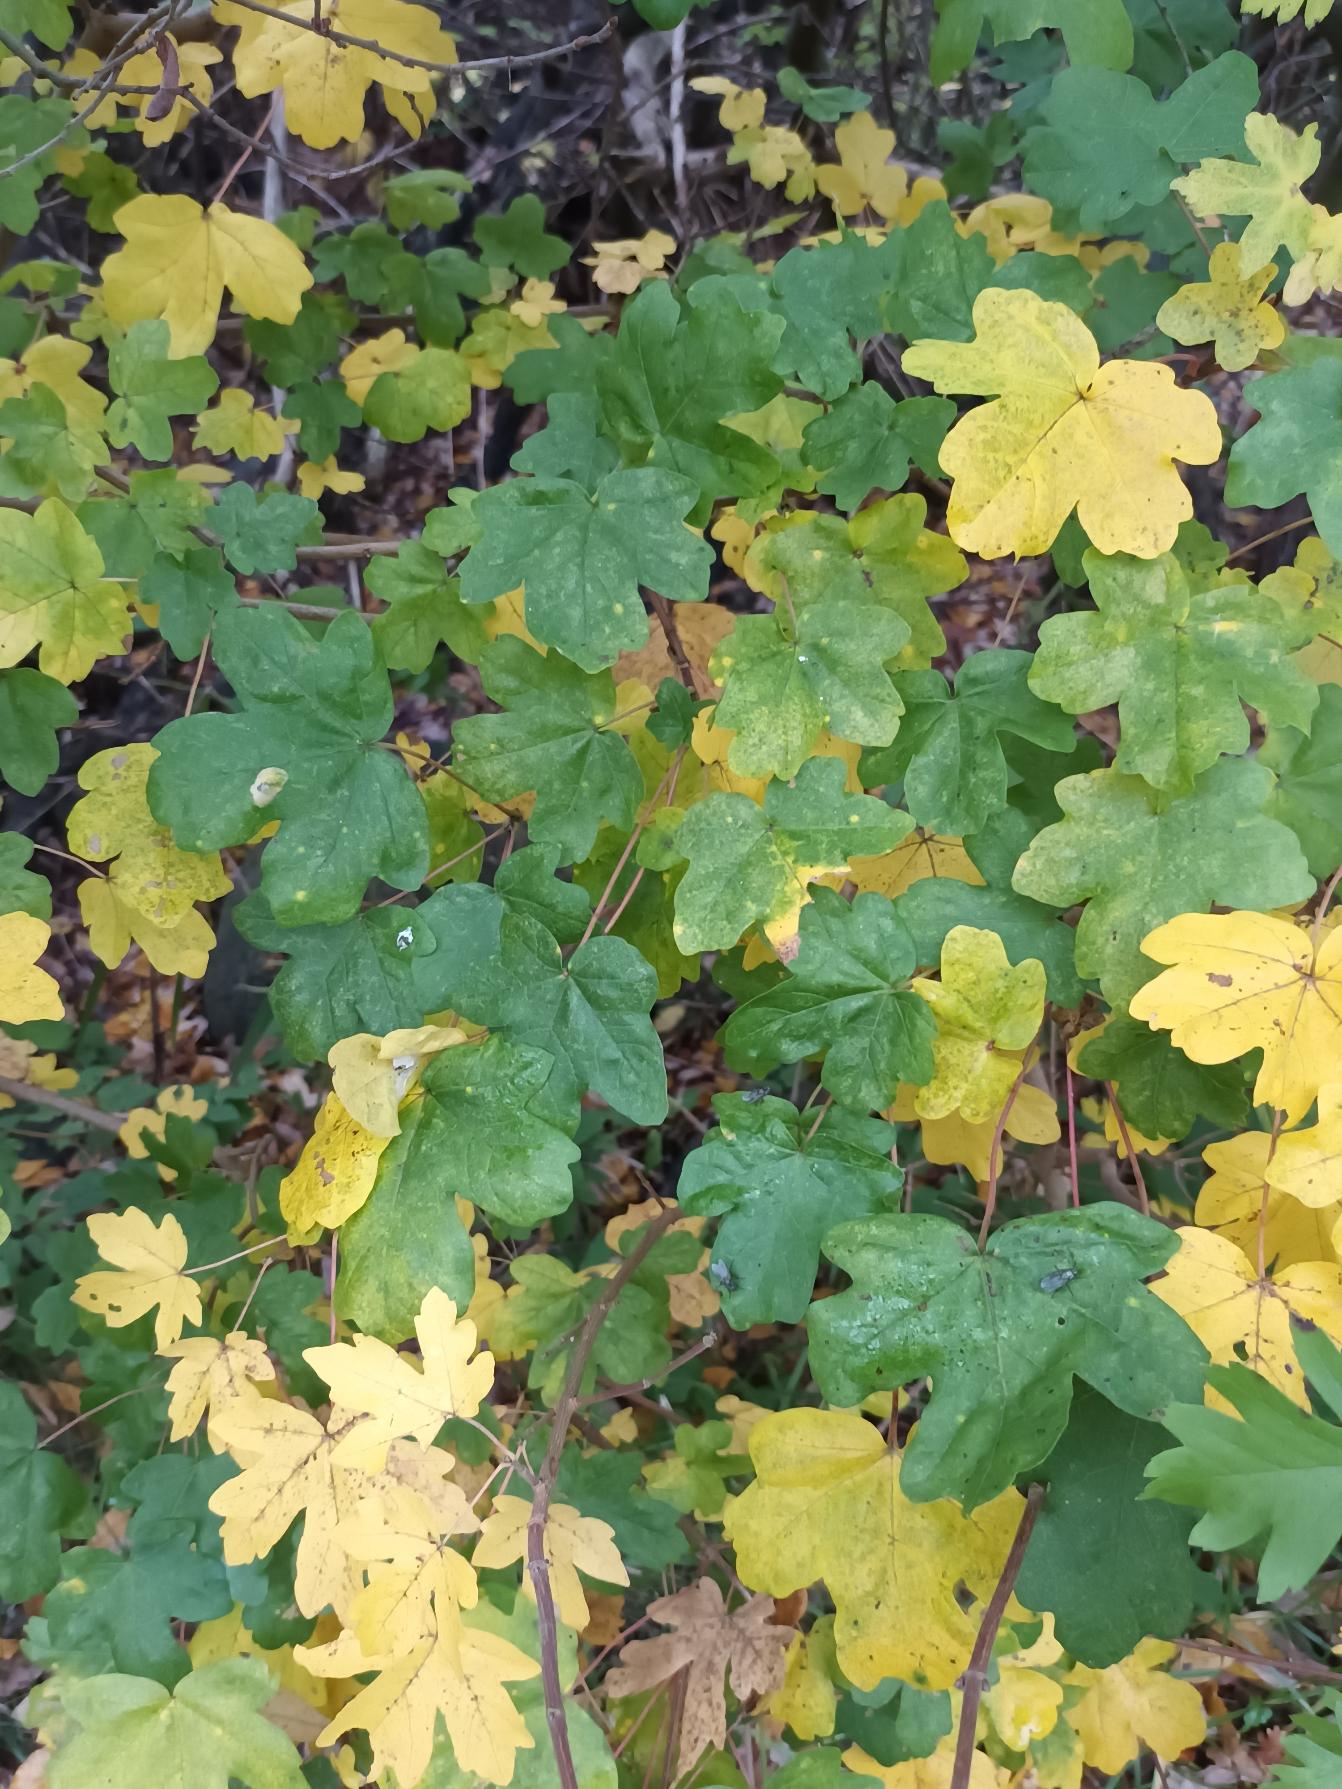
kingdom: Plantae
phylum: Tracheophyta
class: Magnoliopsida
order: Sapindales
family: Sapindaceae
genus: Acer
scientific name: Acer campestre
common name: Navr
